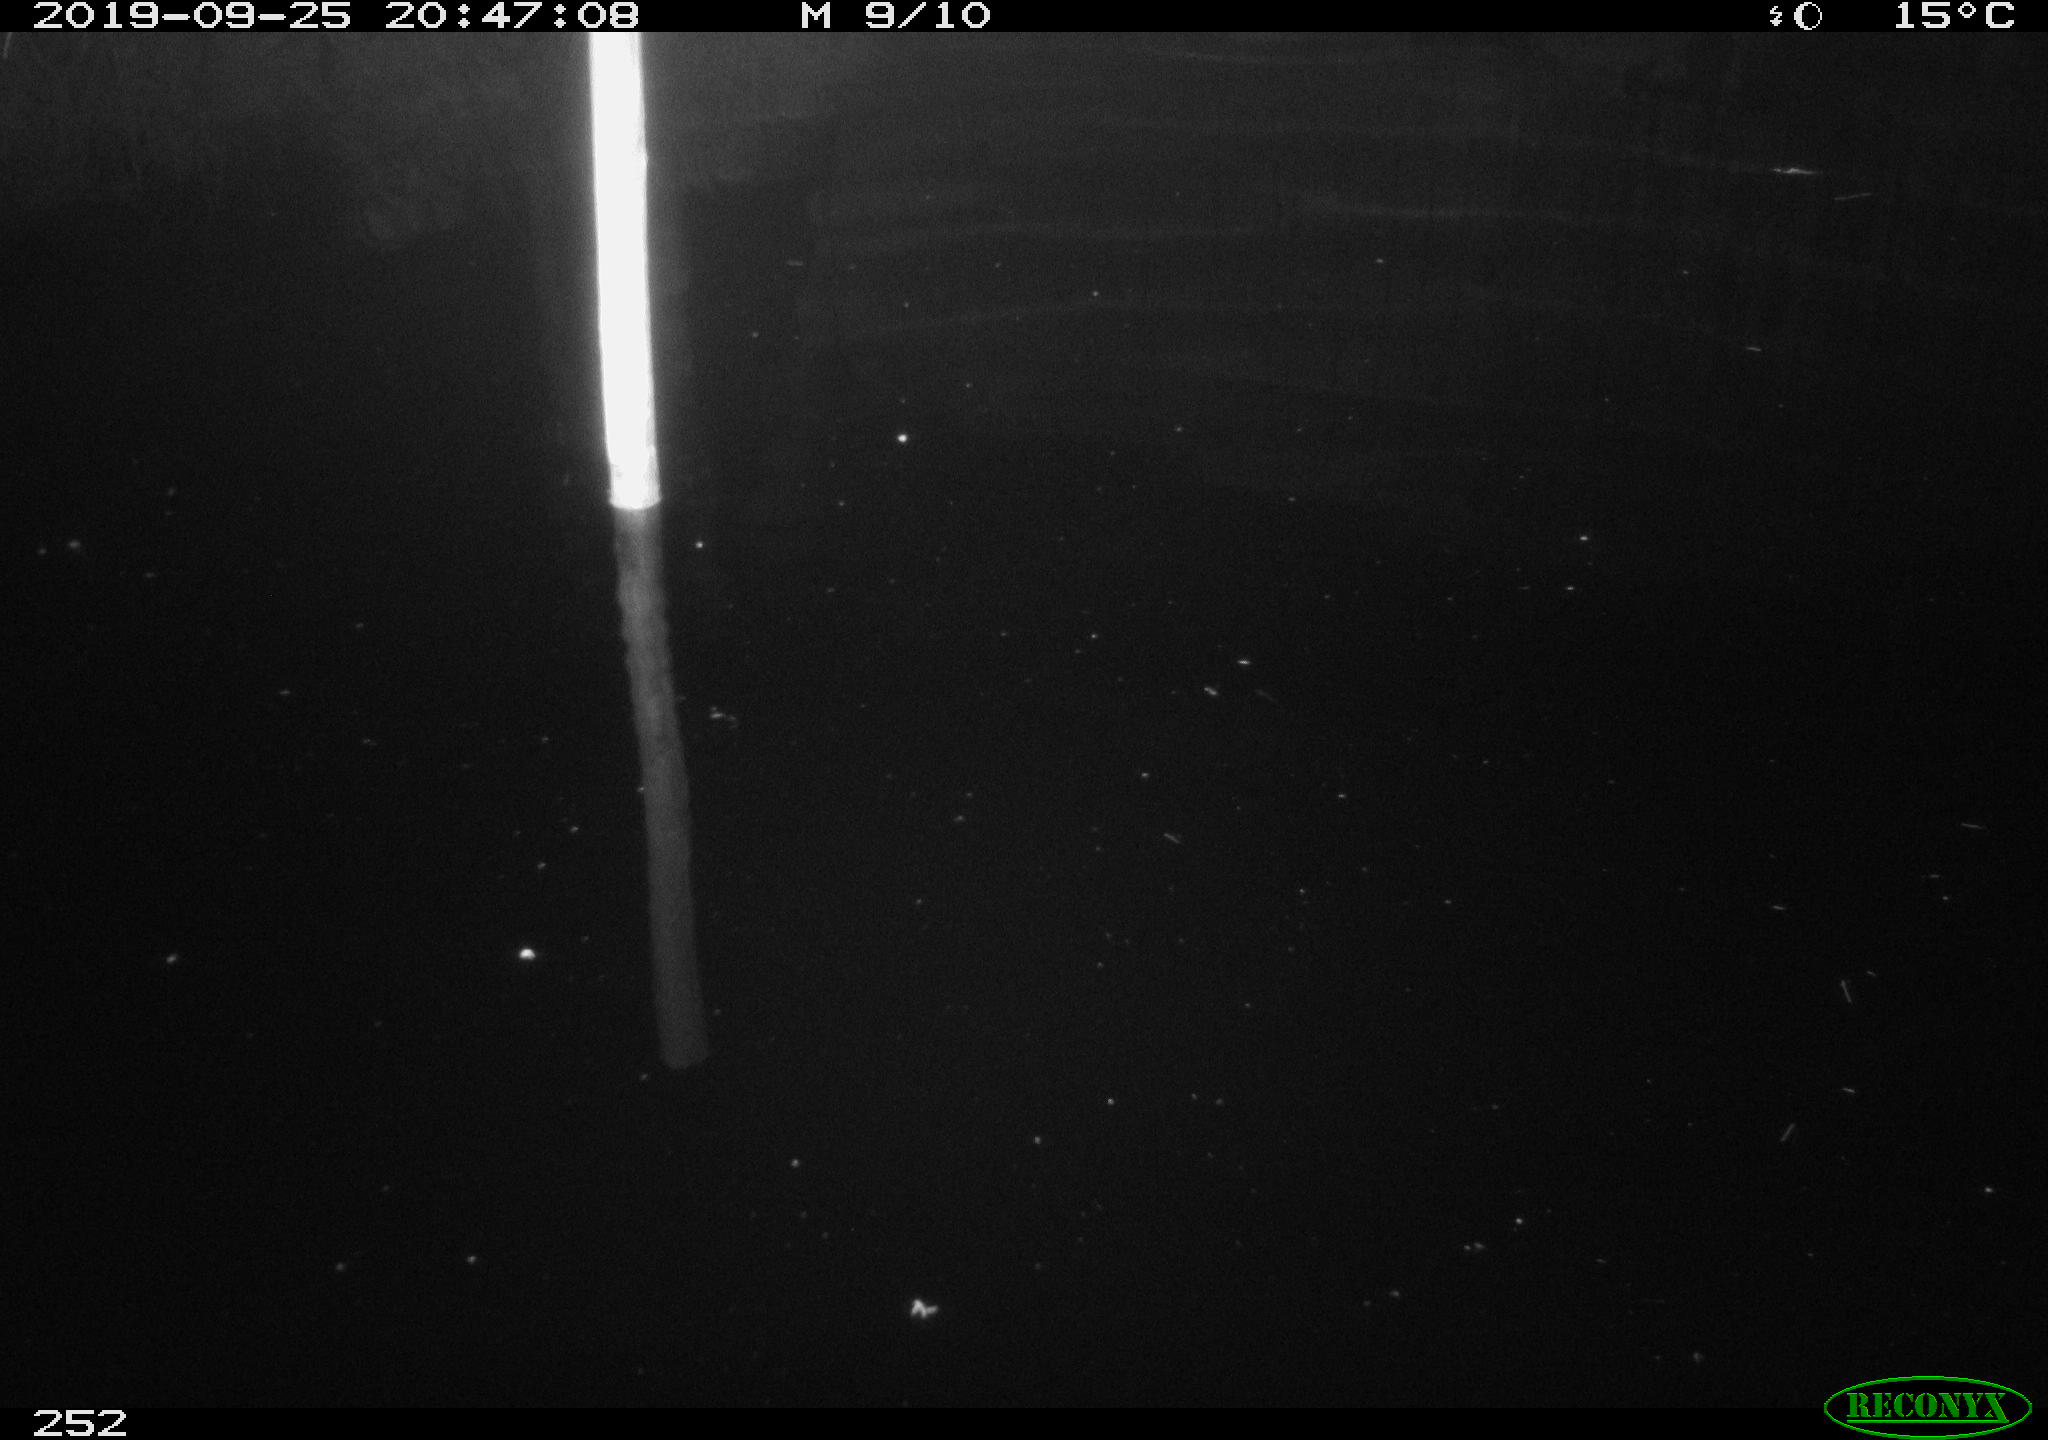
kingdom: Animalia
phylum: Chordata
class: Aves
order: Anseriformes
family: Anatidae
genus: Anas
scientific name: Anas platyrhynchos
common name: Mallard
